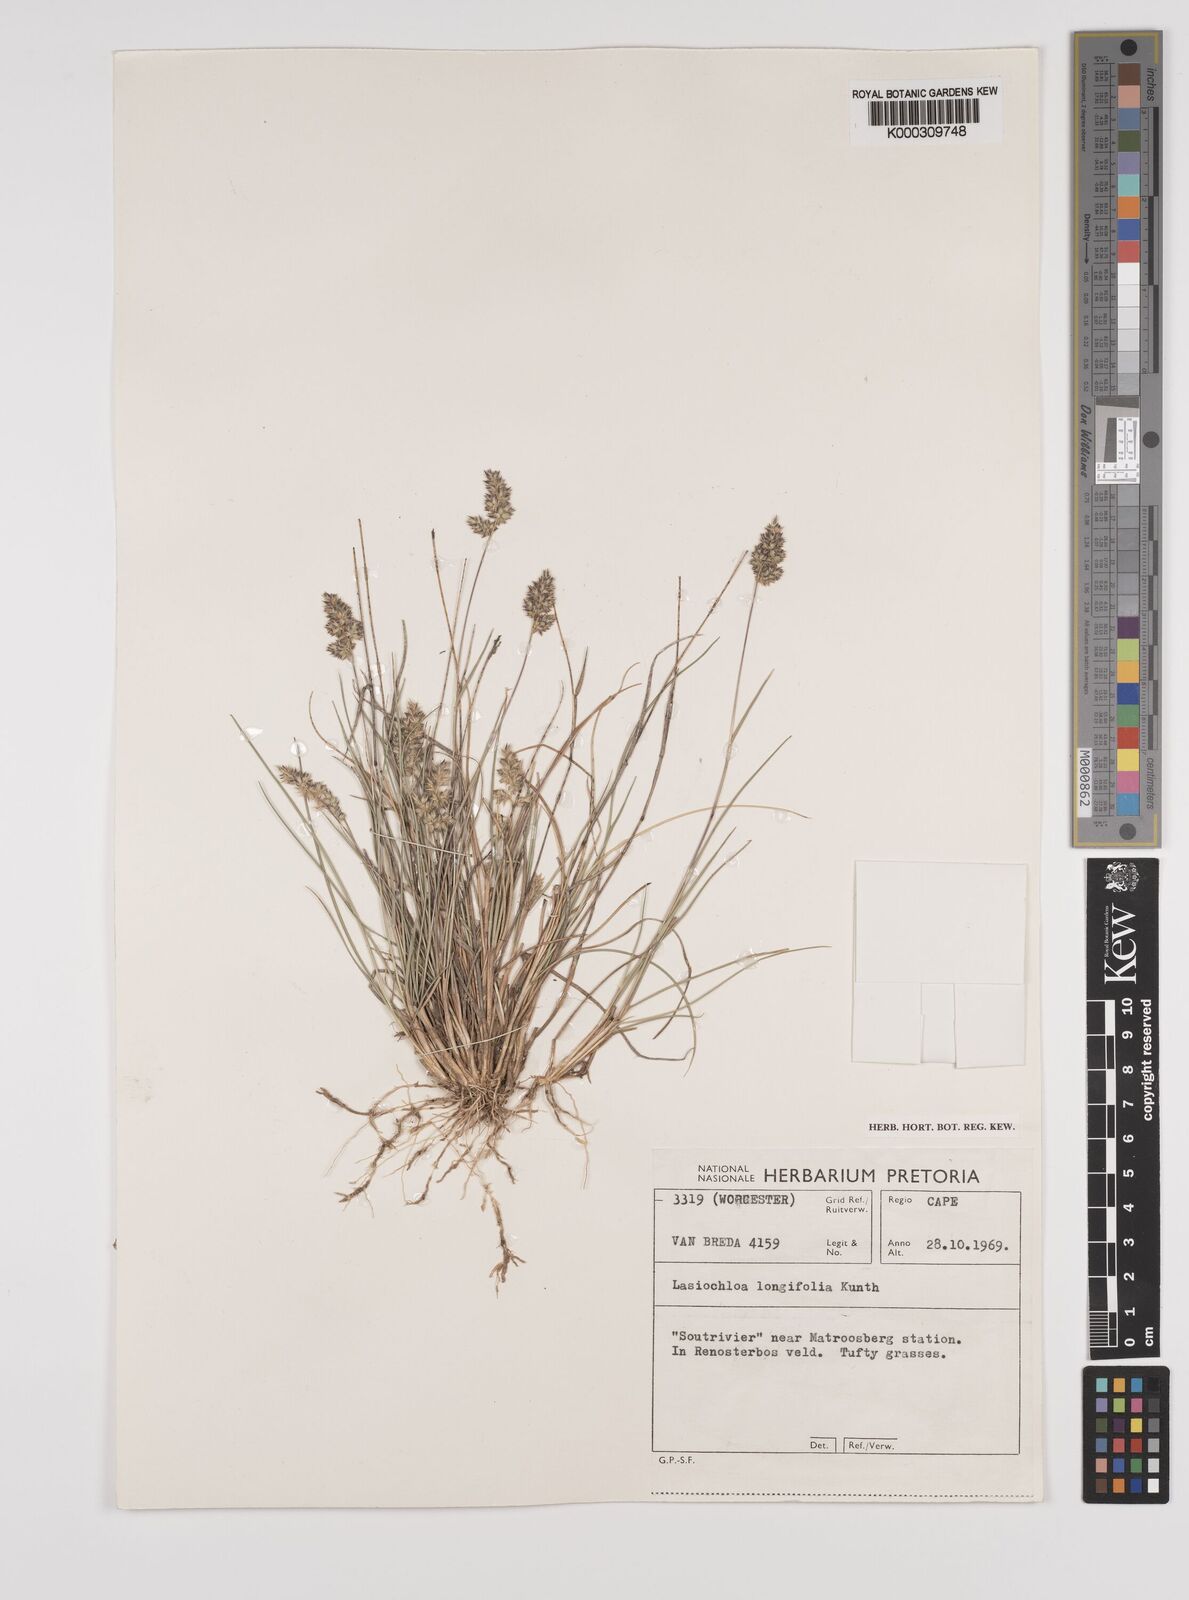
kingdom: Plantae
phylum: Tracheophyta
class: Liliopsida
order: Poales
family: Poaceae
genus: Tribolium
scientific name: Tribolium hispidum
